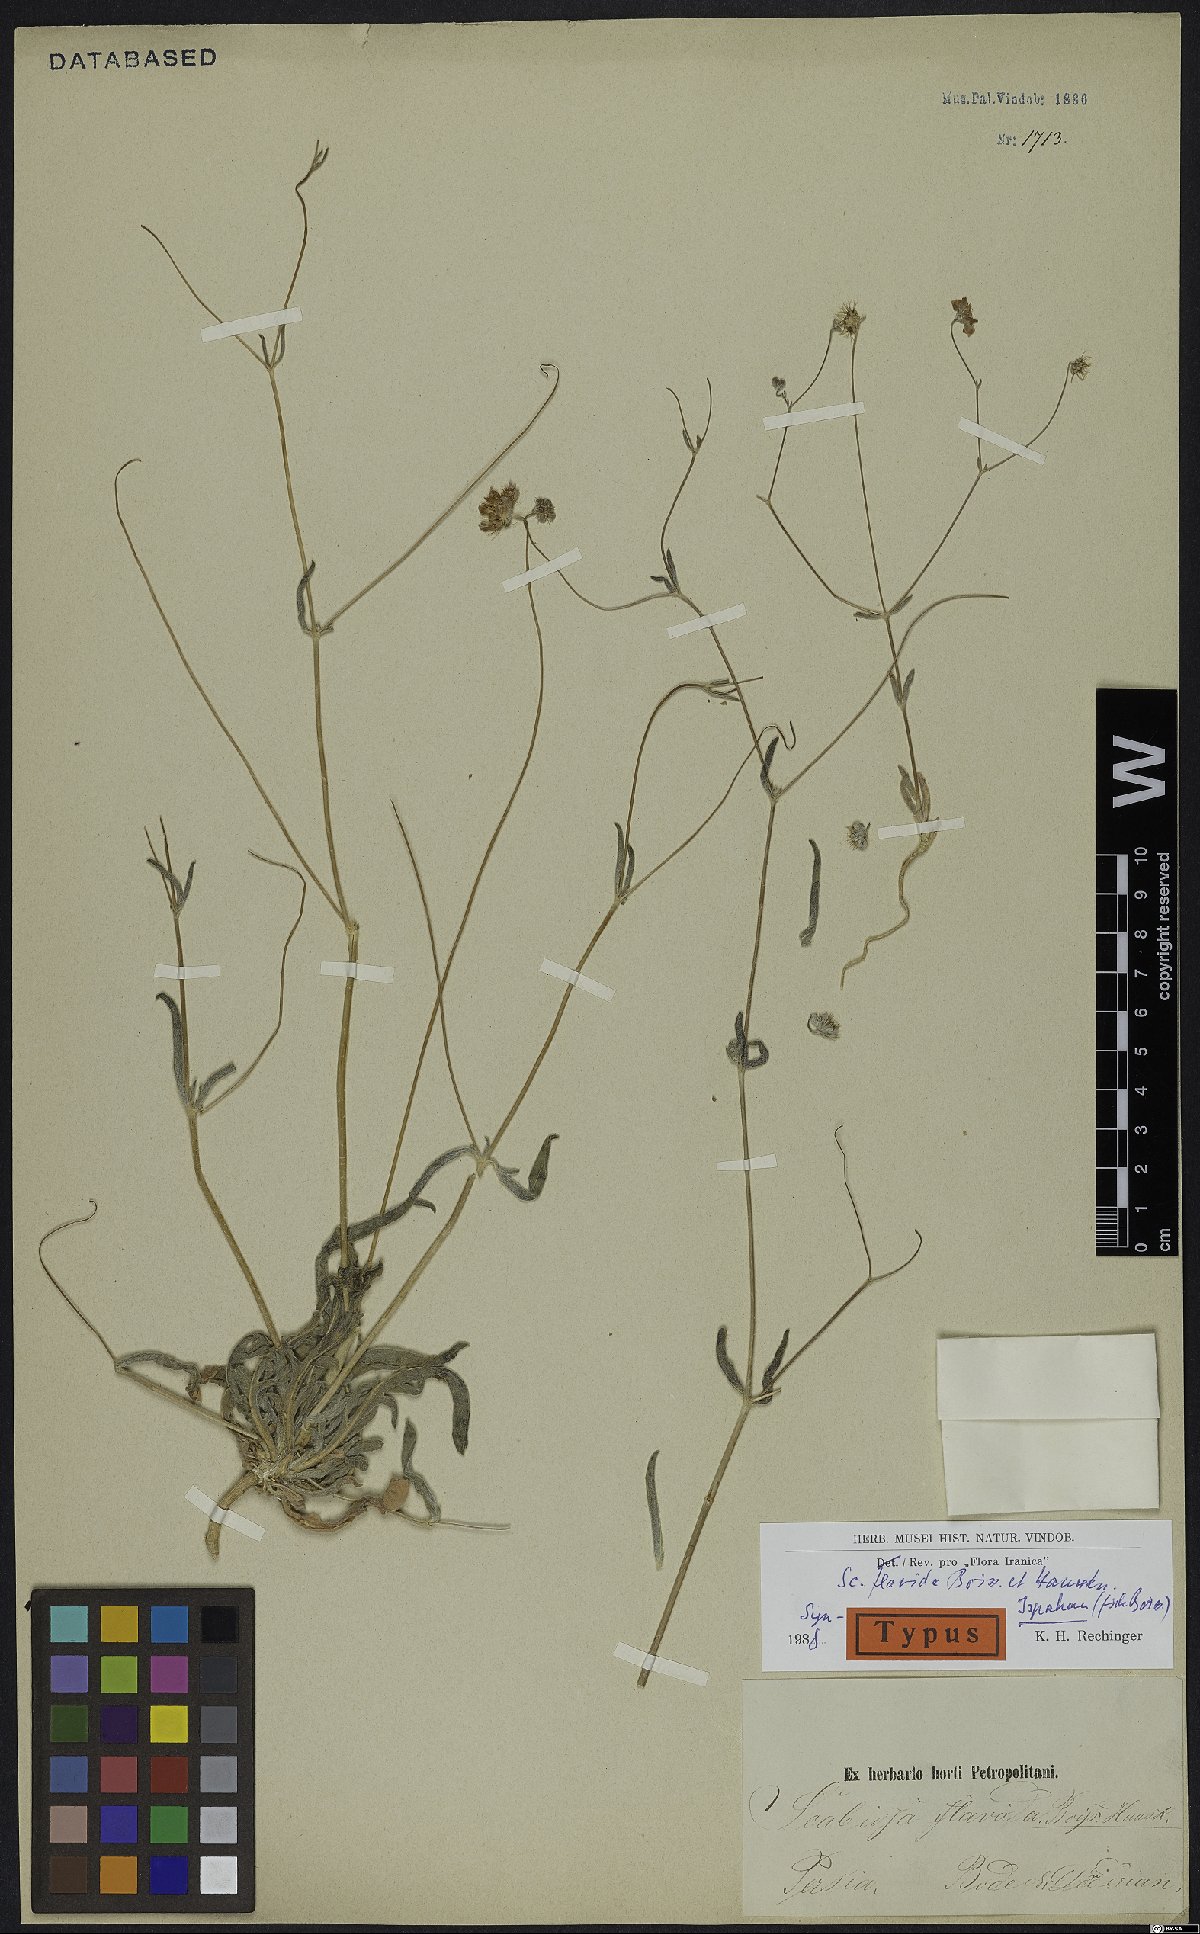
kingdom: Plantae
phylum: Tracheophyta
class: Magnoliopsida
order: Dipsacales
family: Caprifoliaceae
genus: Lomelosia
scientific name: Lomelosia flavida
